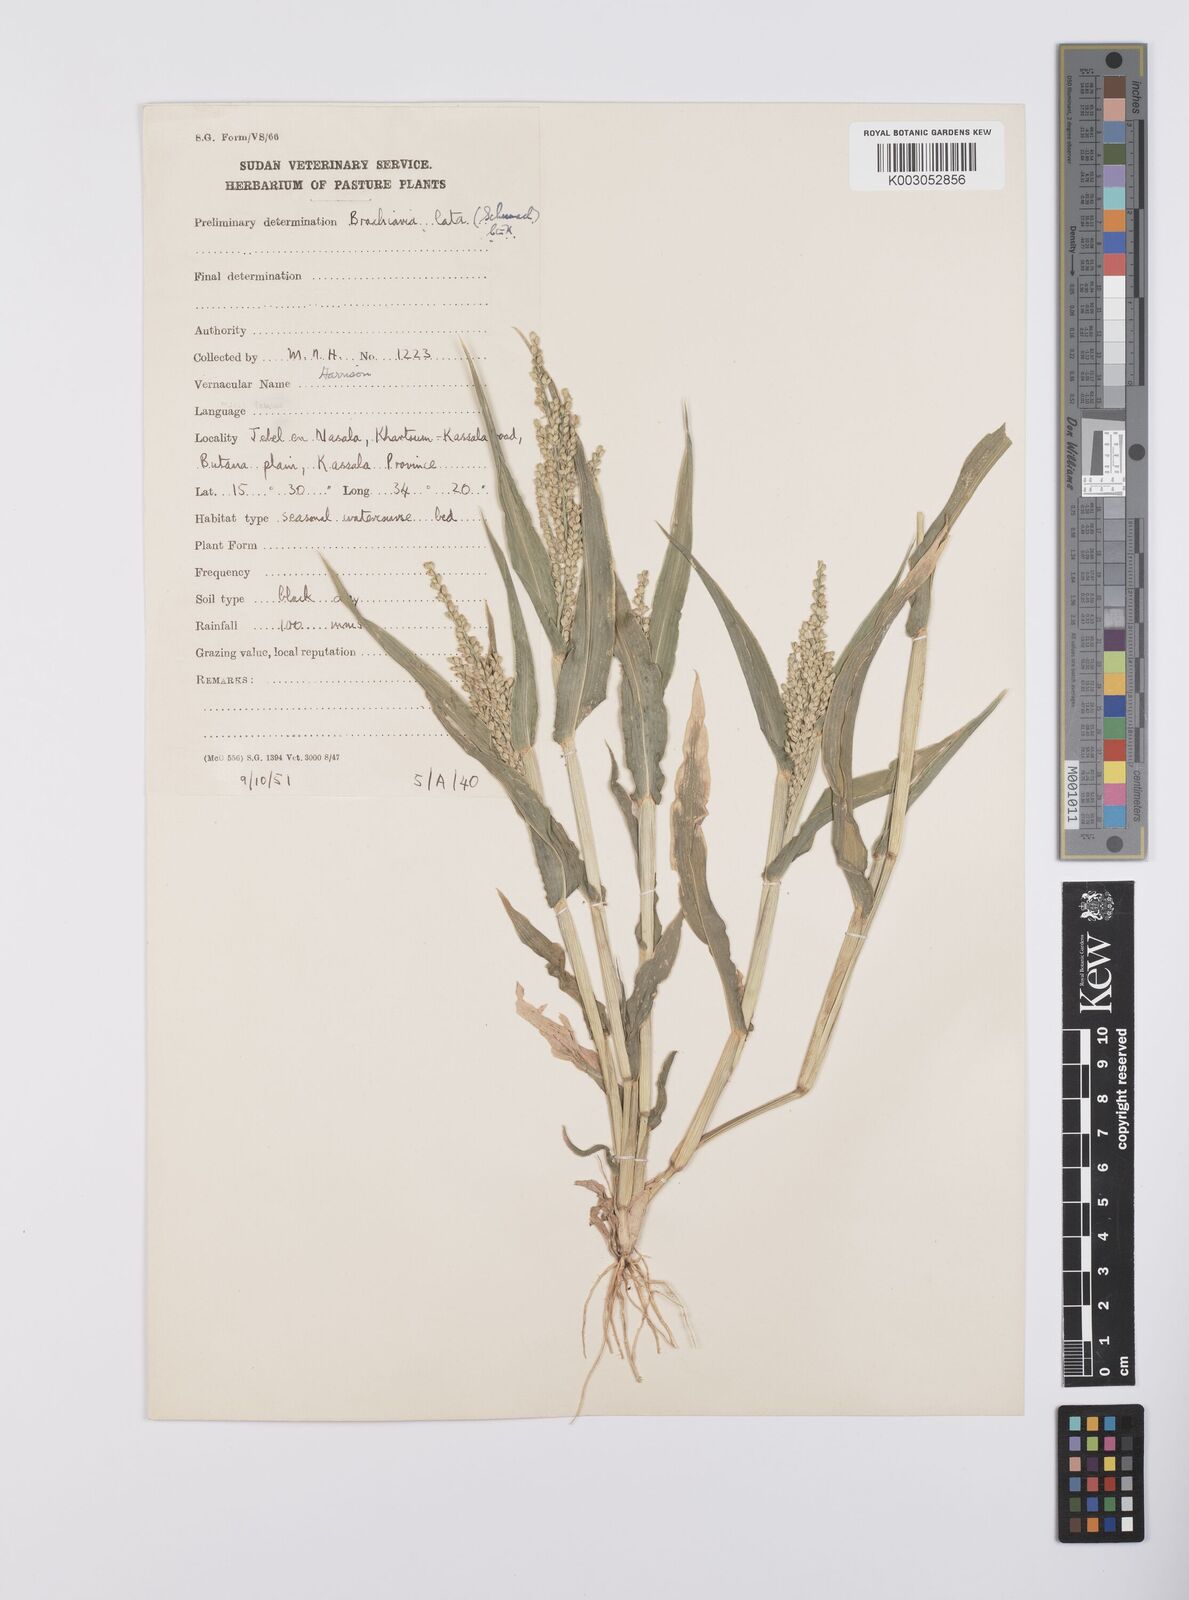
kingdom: Plantae
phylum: Tracheophyta
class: Liliopsida
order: Poales
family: Poaceae
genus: Urochloa
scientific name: Urochloa lata
